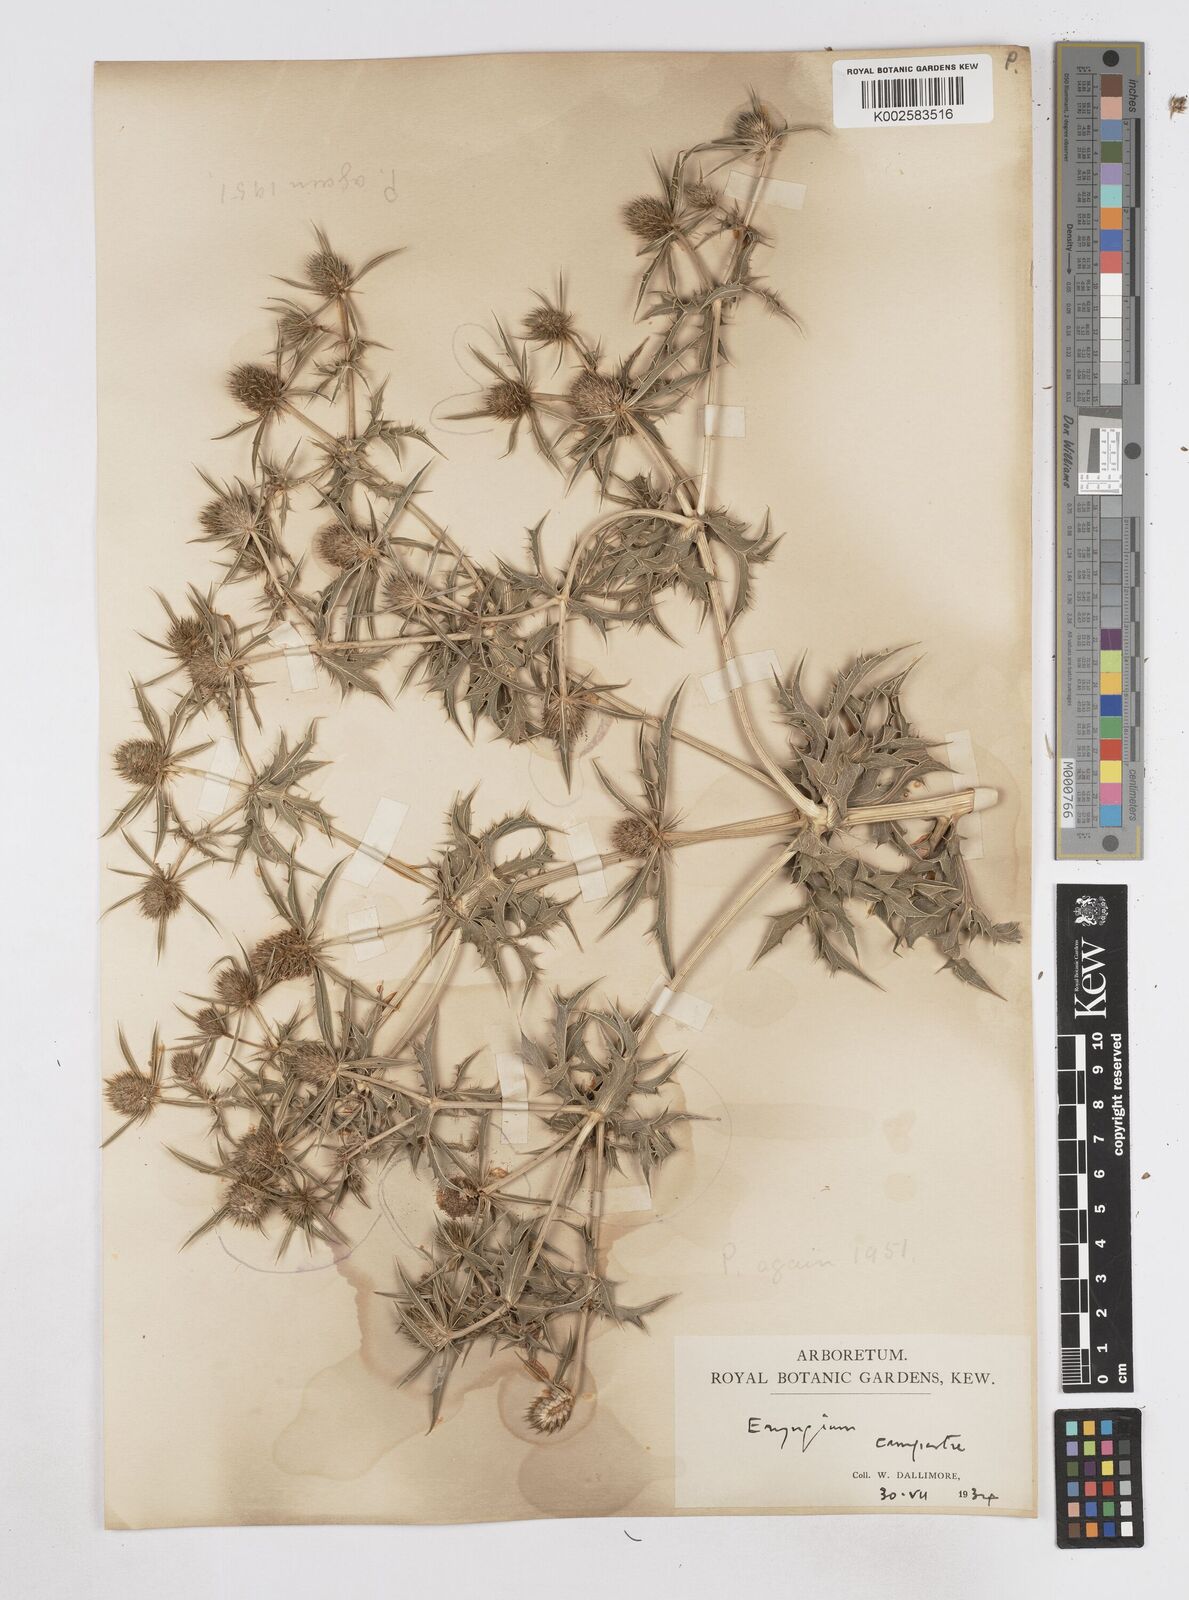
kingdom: Plantae
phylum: Tracheophyta
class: Magnoliopsida
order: Apiales
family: Apiaceae
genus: Eryngium
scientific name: Eryngium campestre
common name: Field eryngo
